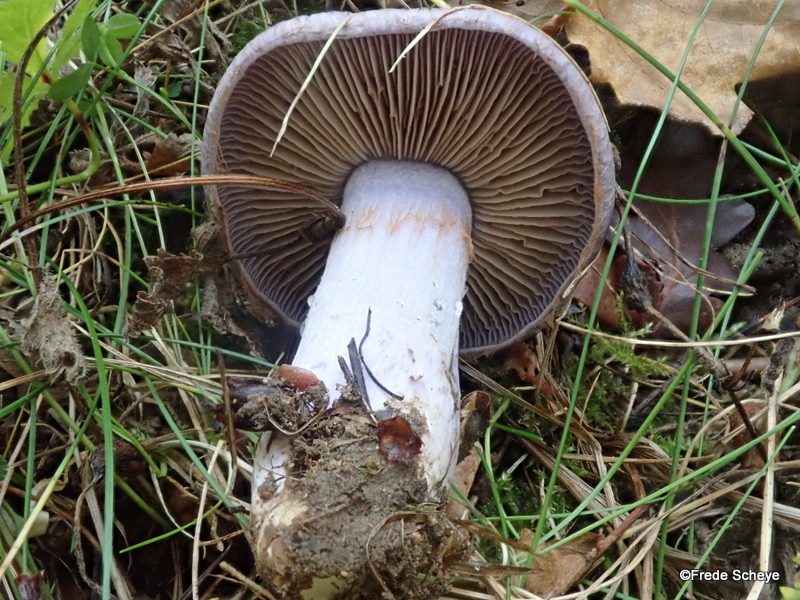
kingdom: Fungi
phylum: Basidiomycota
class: Agaricomycetes
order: Agaricales
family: Cortinariaceae
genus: Cortinarius
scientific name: Cortinarius
